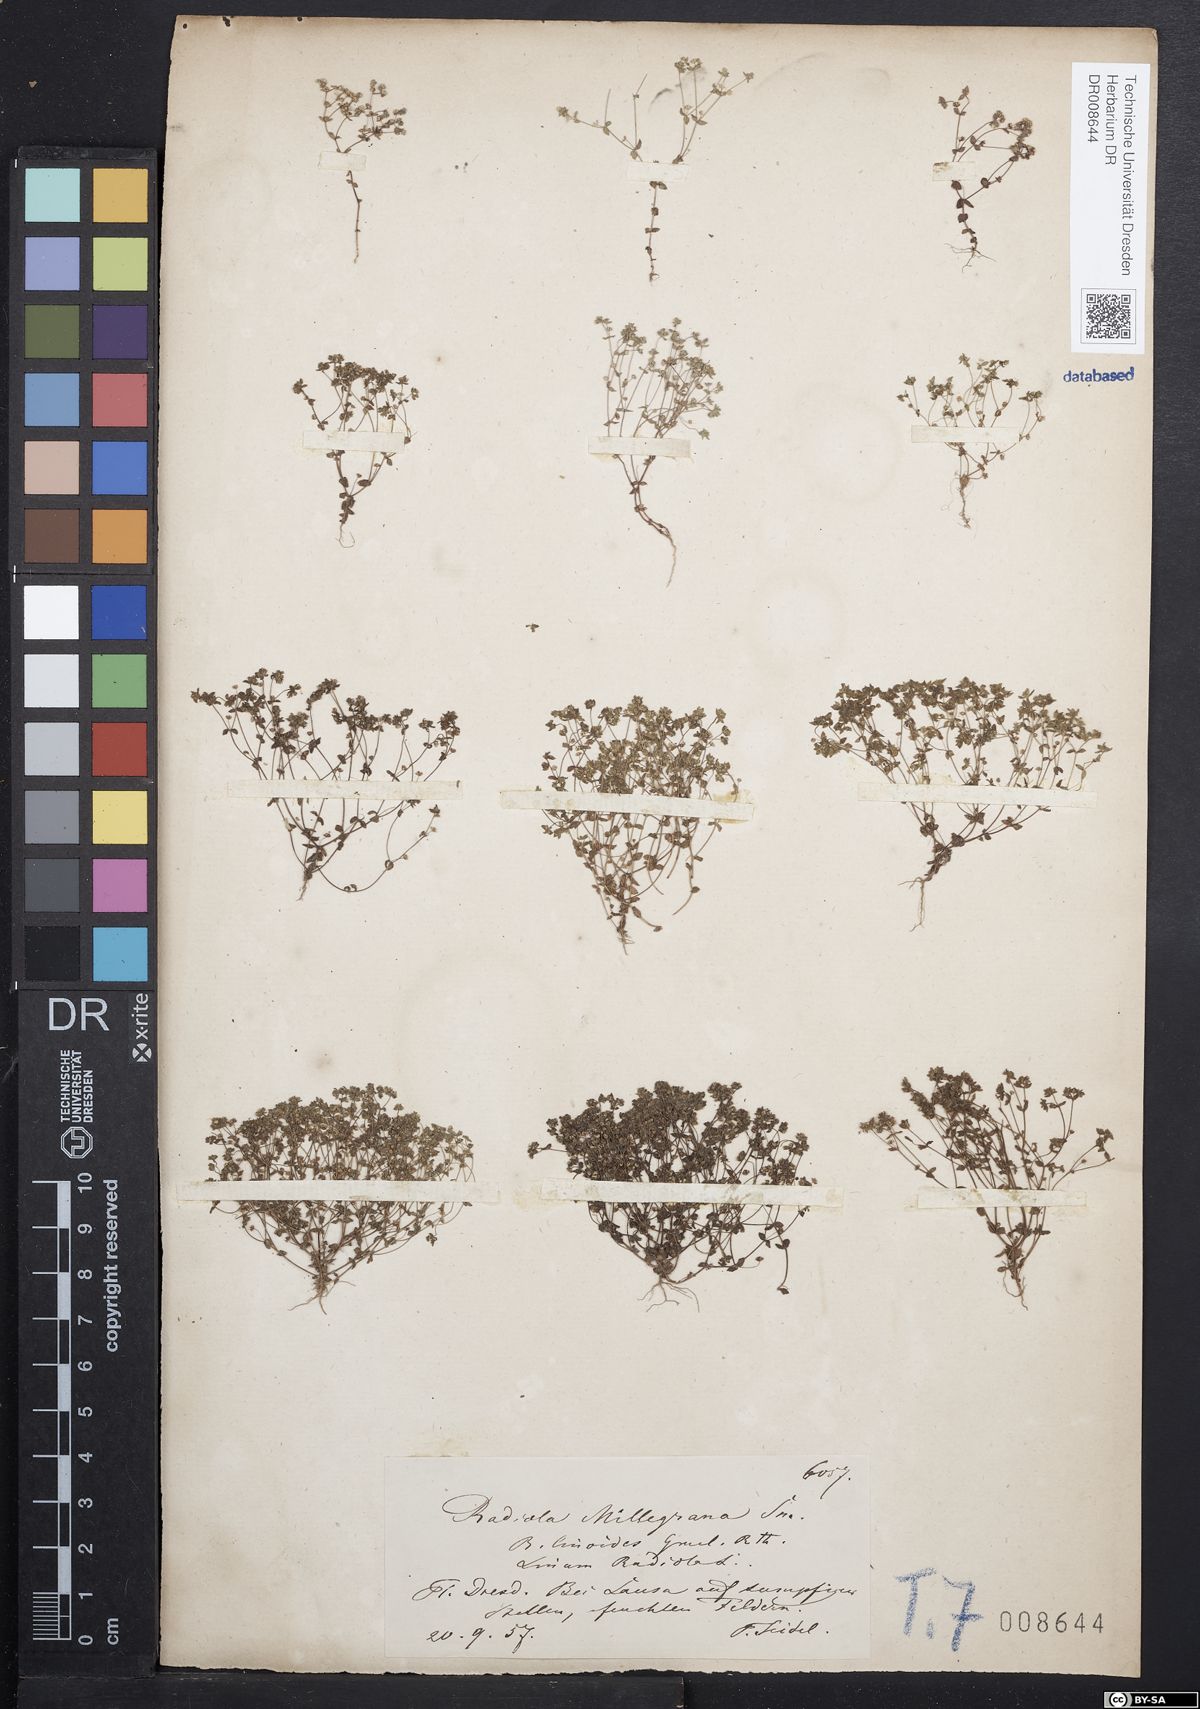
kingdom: Plantae
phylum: Tracheophyta
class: Magnoliopsida
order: Malpighiales
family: Linaceae
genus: Radiola
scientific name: Radiola linoides
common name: Allseed
